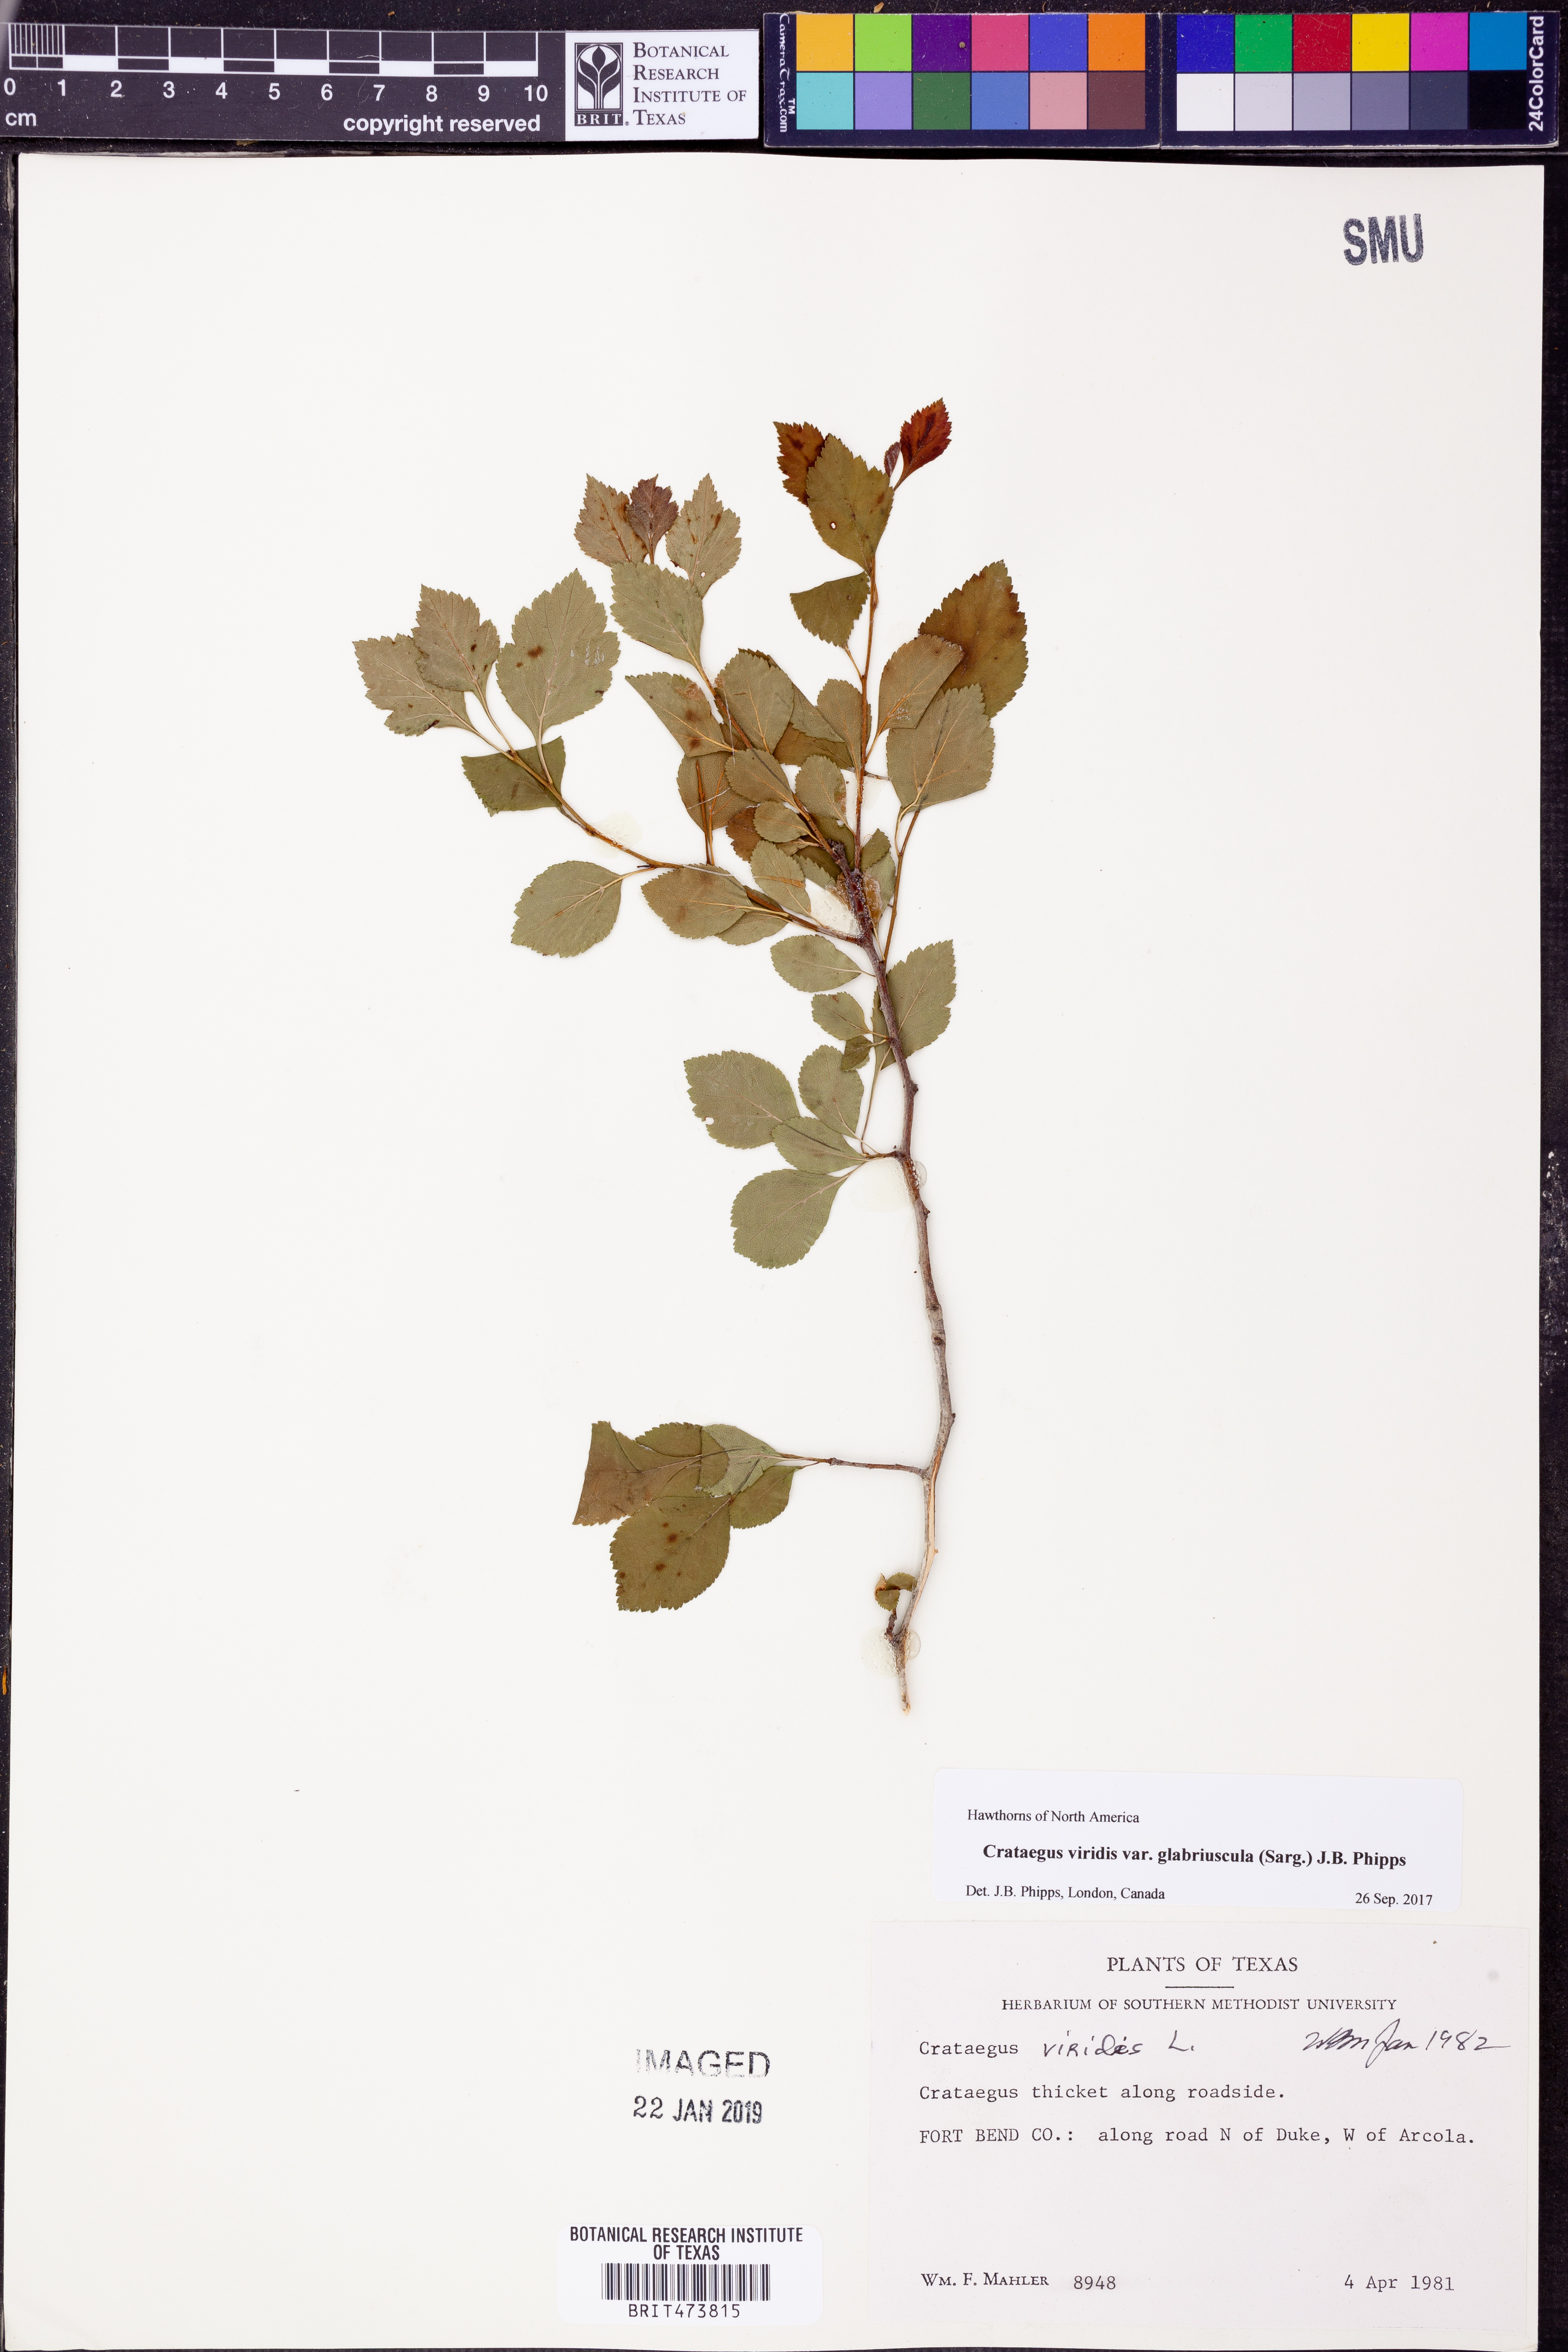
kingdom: Plantae
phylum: Tracheophyta
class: Magnoliopsida
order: Rosales
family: Rosaceae
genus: Crataegus
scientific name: Crataegus viridis
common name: Southernthorn
